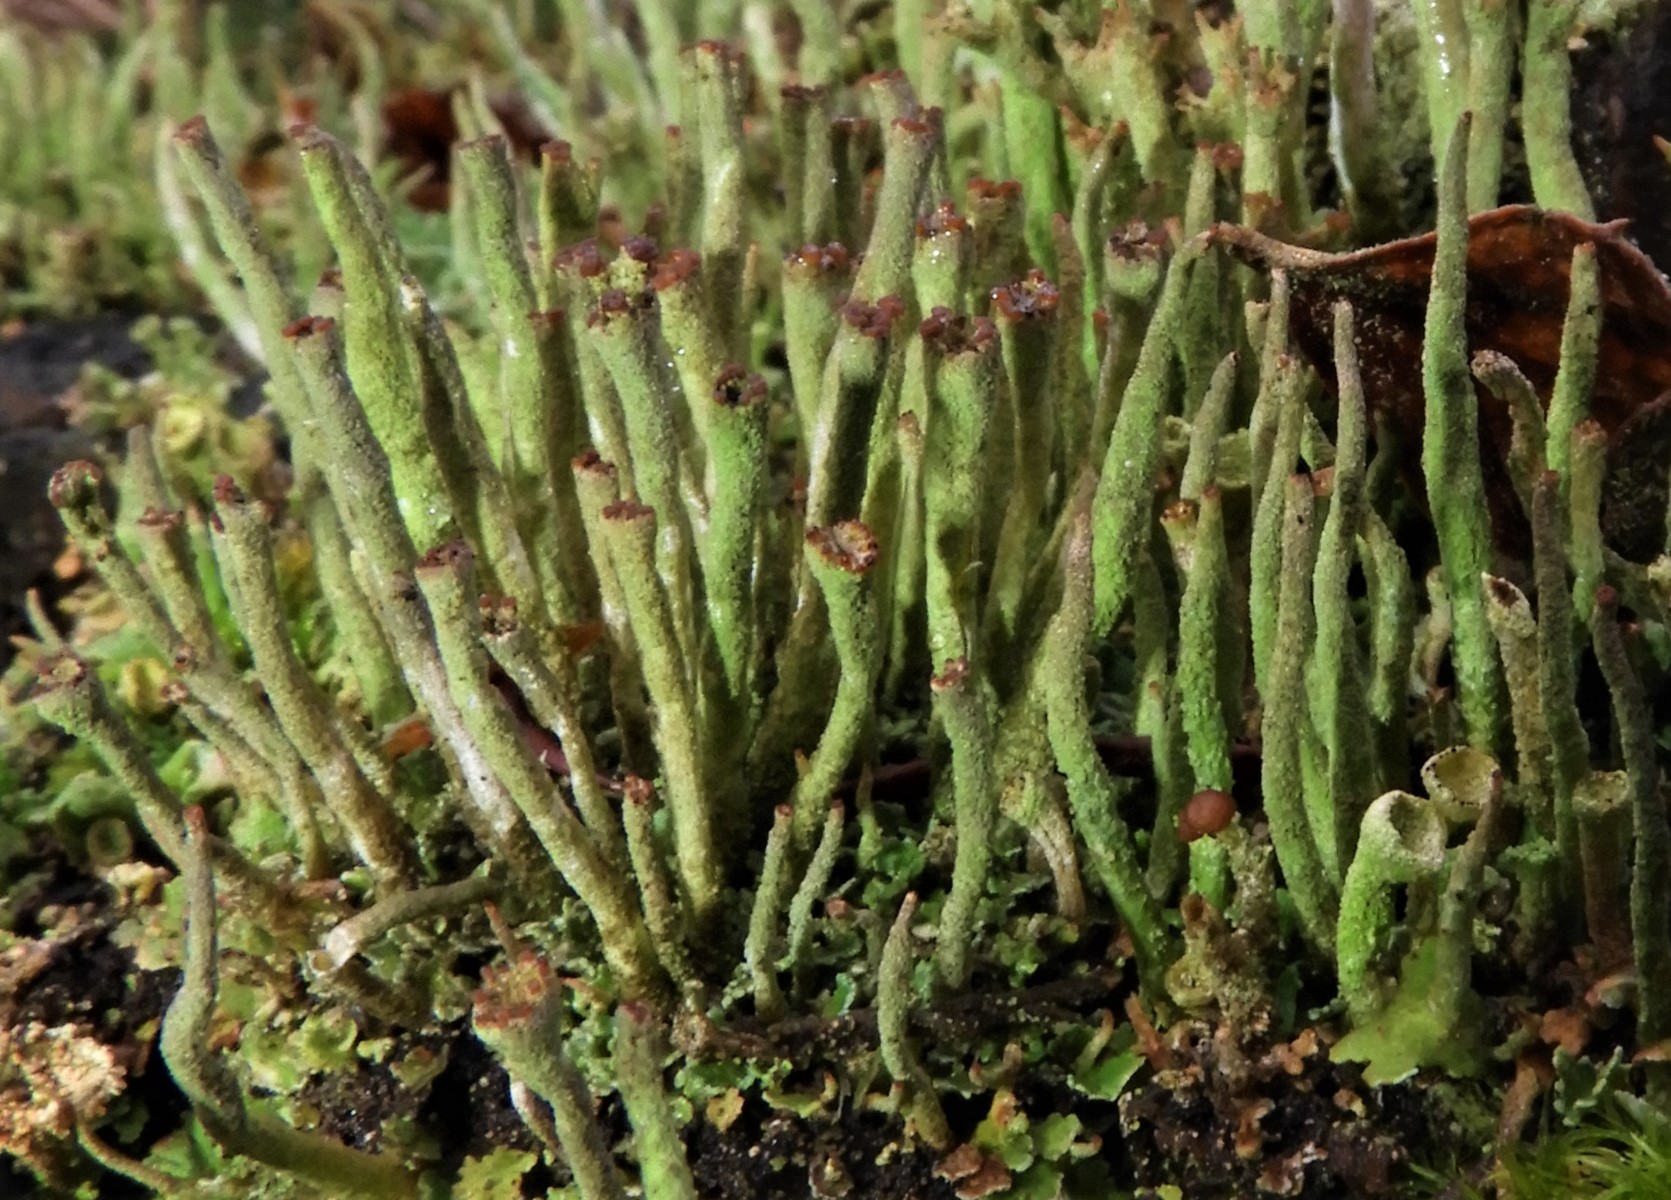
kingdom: Fungi
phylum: Ascomycota
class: Lecanoromycetes
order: Lecanorales
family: Cladoniaceae
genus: Cladonia
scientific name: Cladonia ochrochlora
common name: stød-bægerlav
